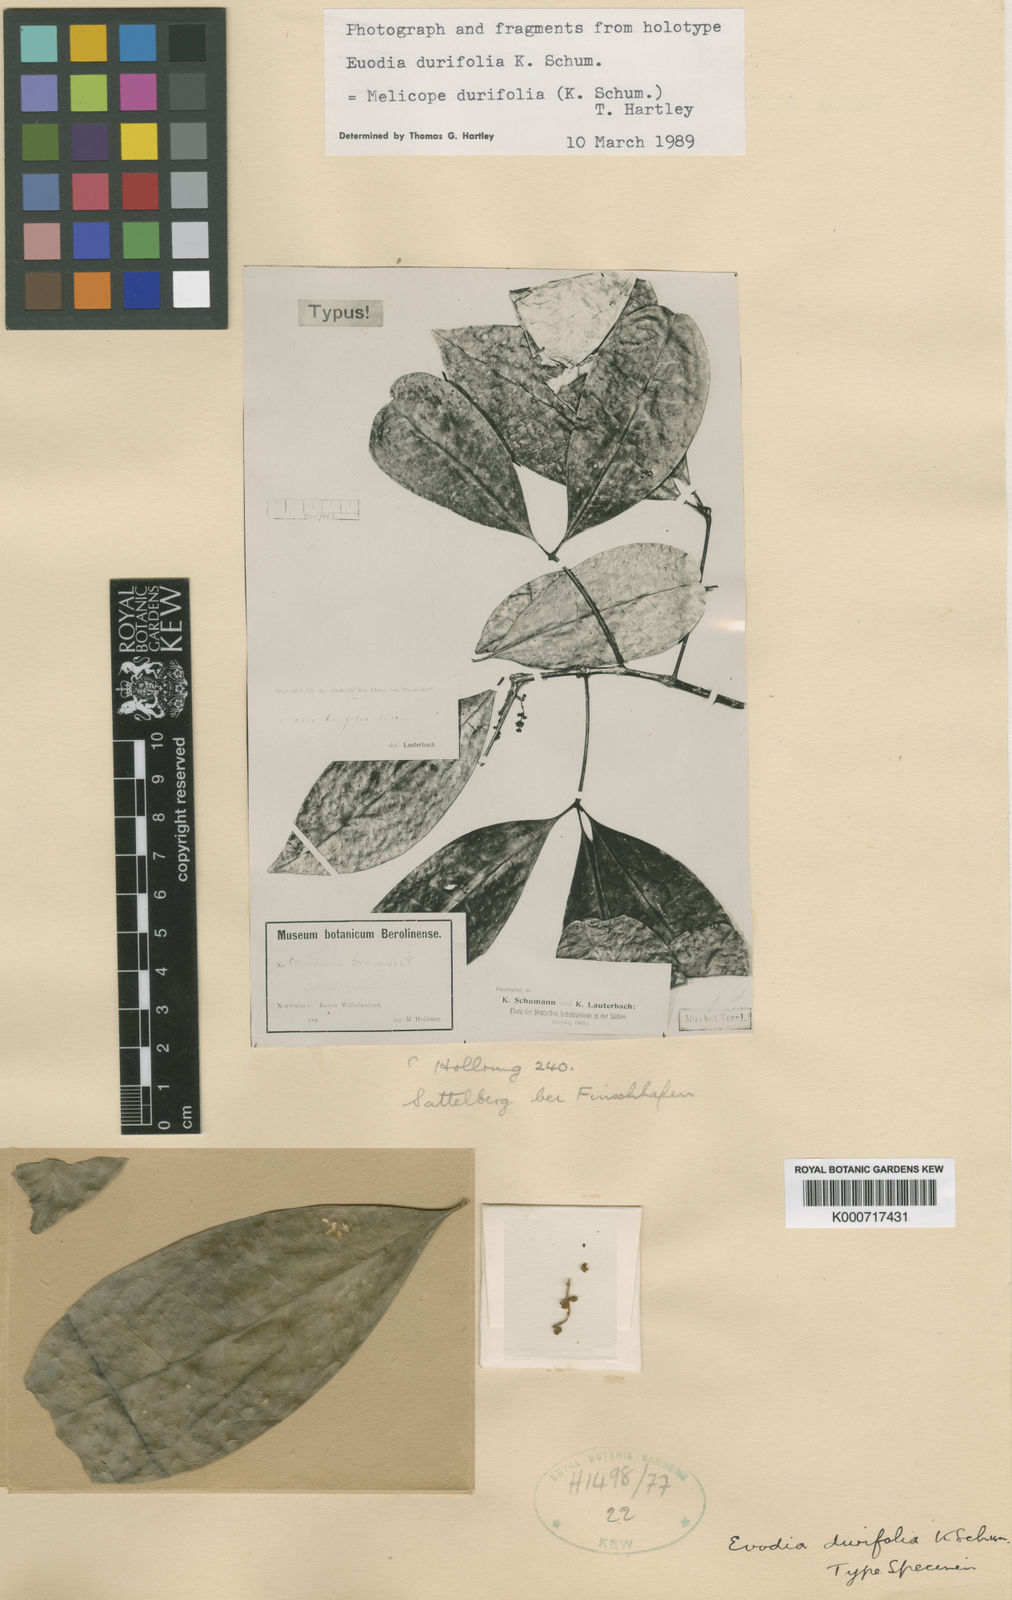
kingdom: Plantae
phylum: Tracheophyta
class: Magnoliopsida
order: Sapindales
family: Rutaceae
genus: Melicope
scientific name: Melicope durifolia
